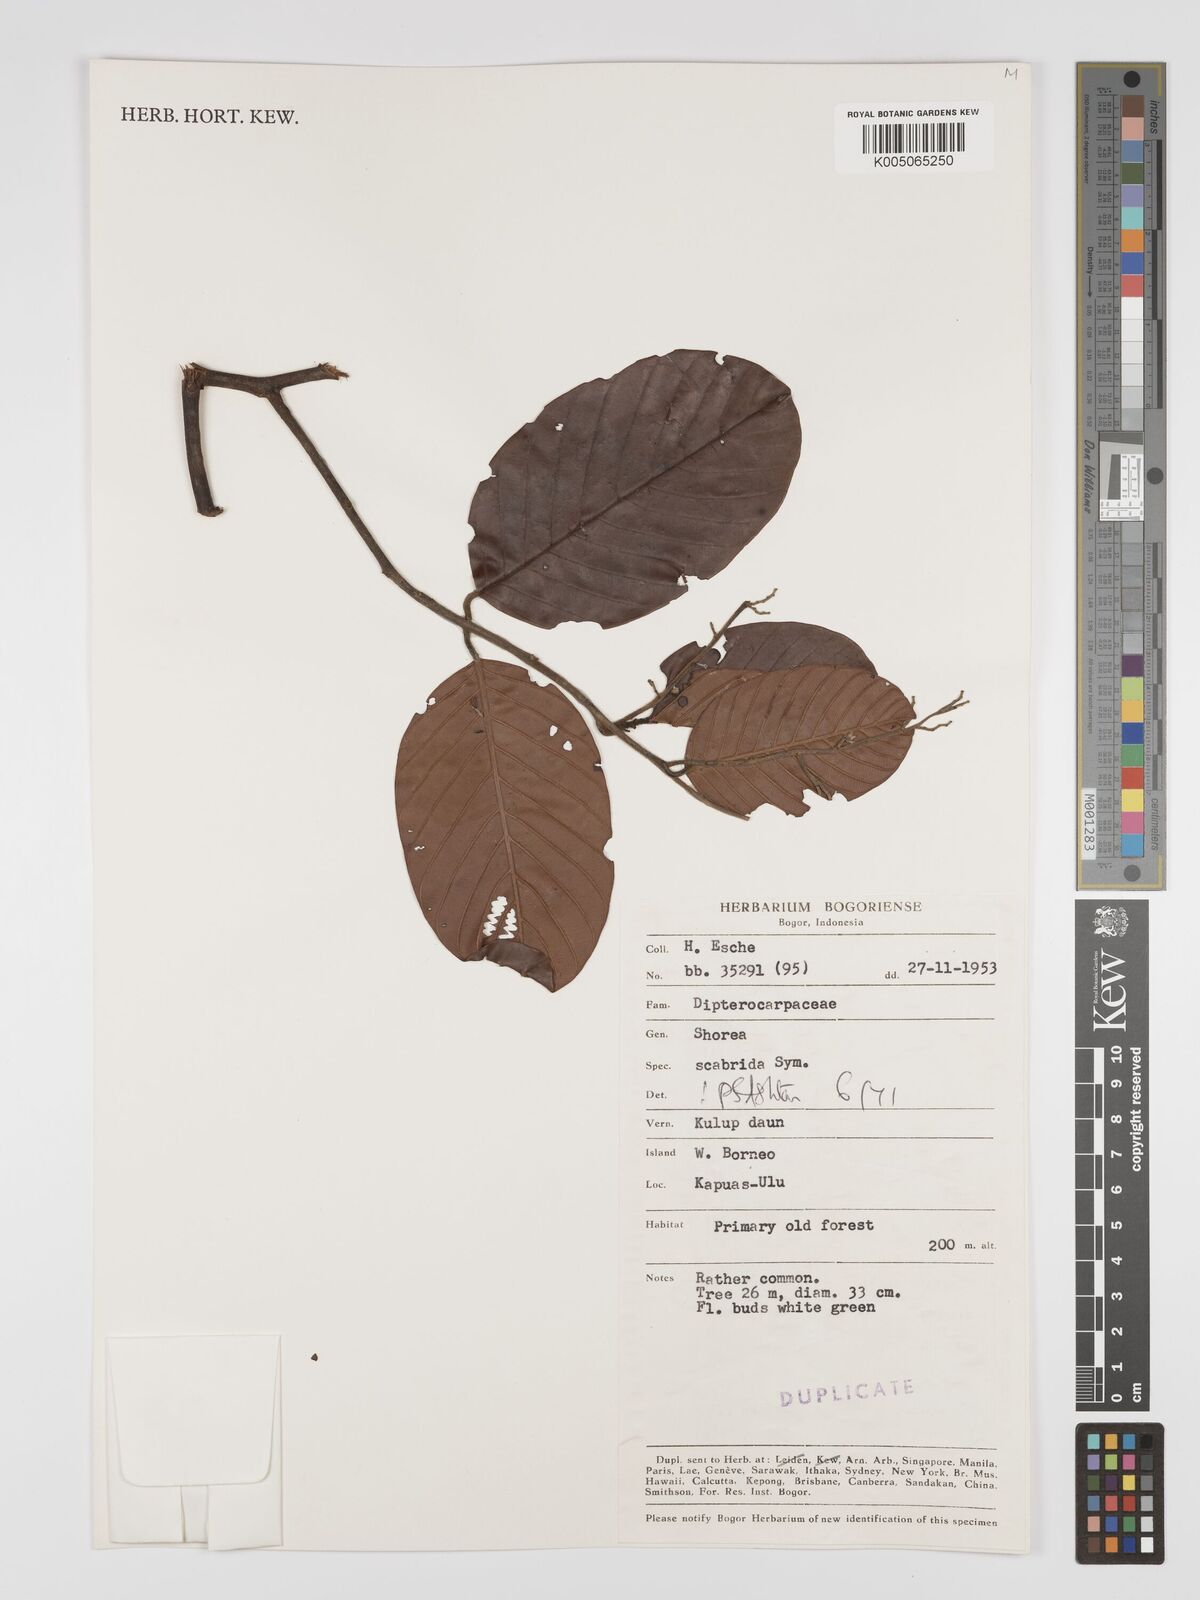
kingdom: Plantae
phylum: Tracheophyta
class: Magnoliopsida
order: Malvales
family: Dipterocarpaceae
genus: Shorea
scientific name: Shorea scabrida
